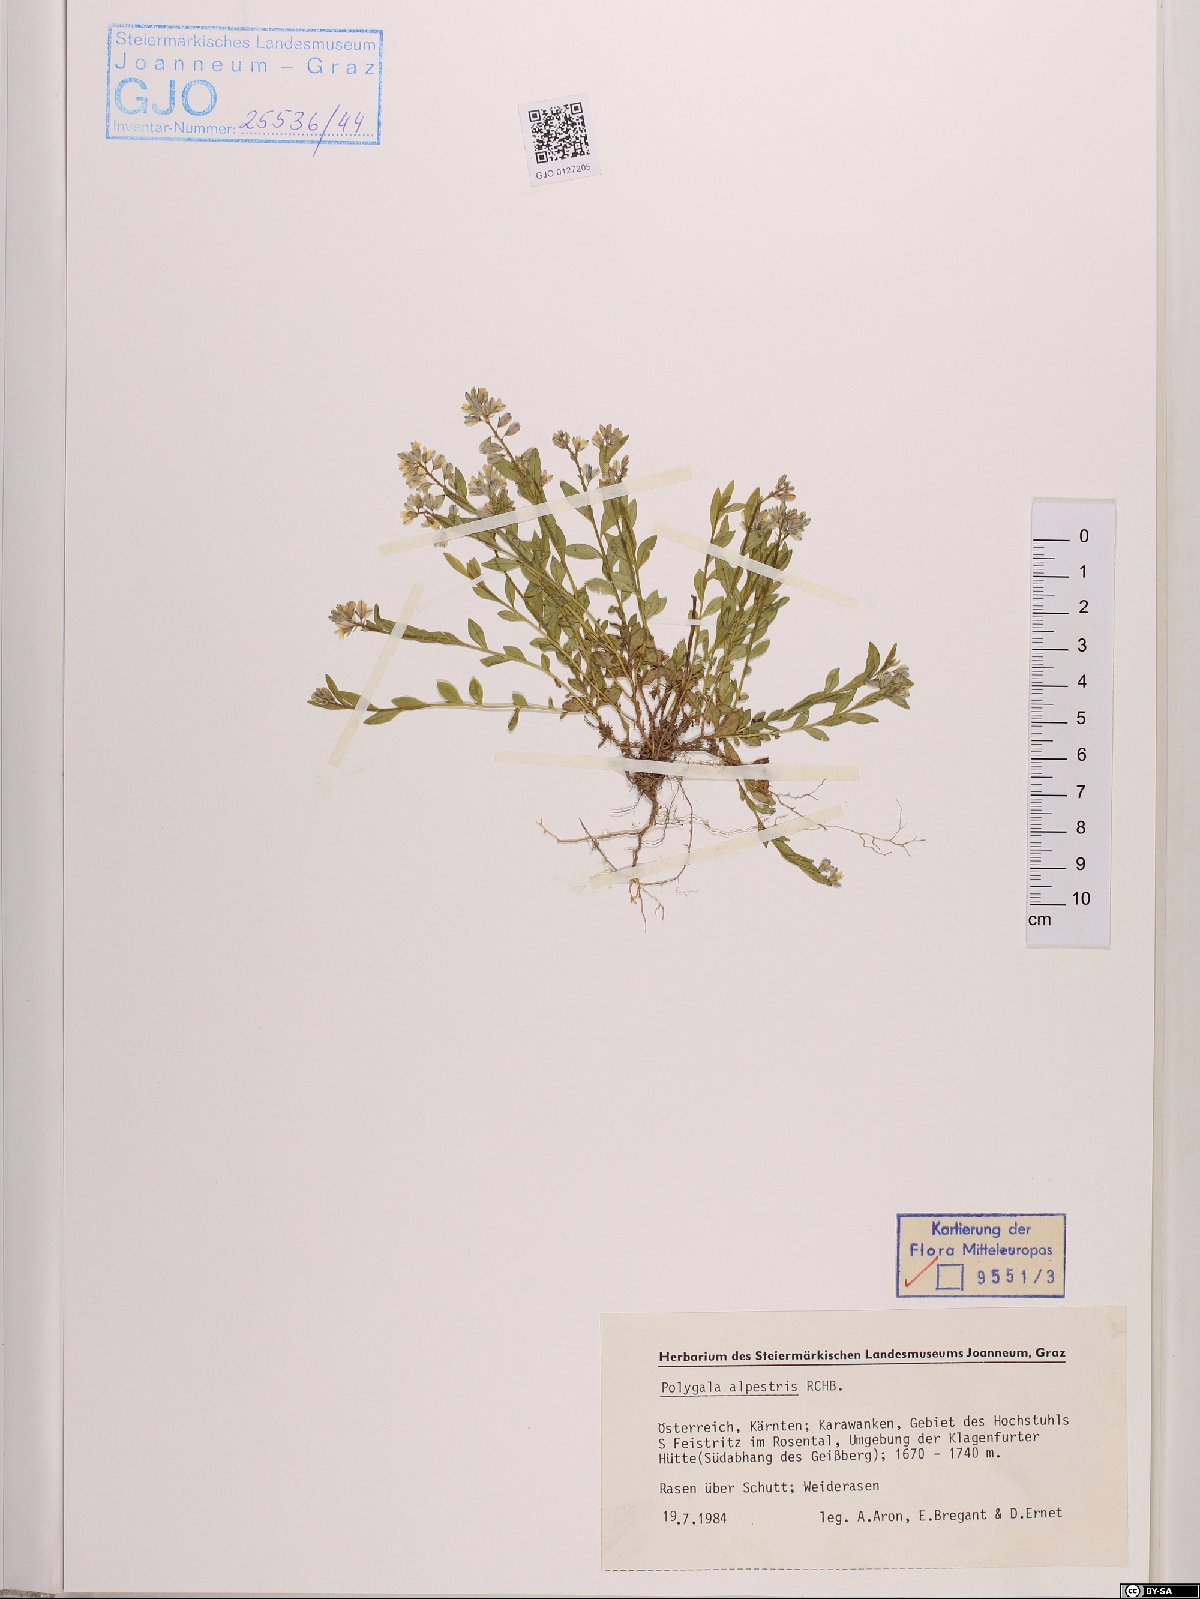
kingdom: Plantae
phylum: Tracheophyta
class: Magnoliopsida
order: Fabales
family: Polygalaceae
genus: Polygala
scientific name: Polygala alpestris
